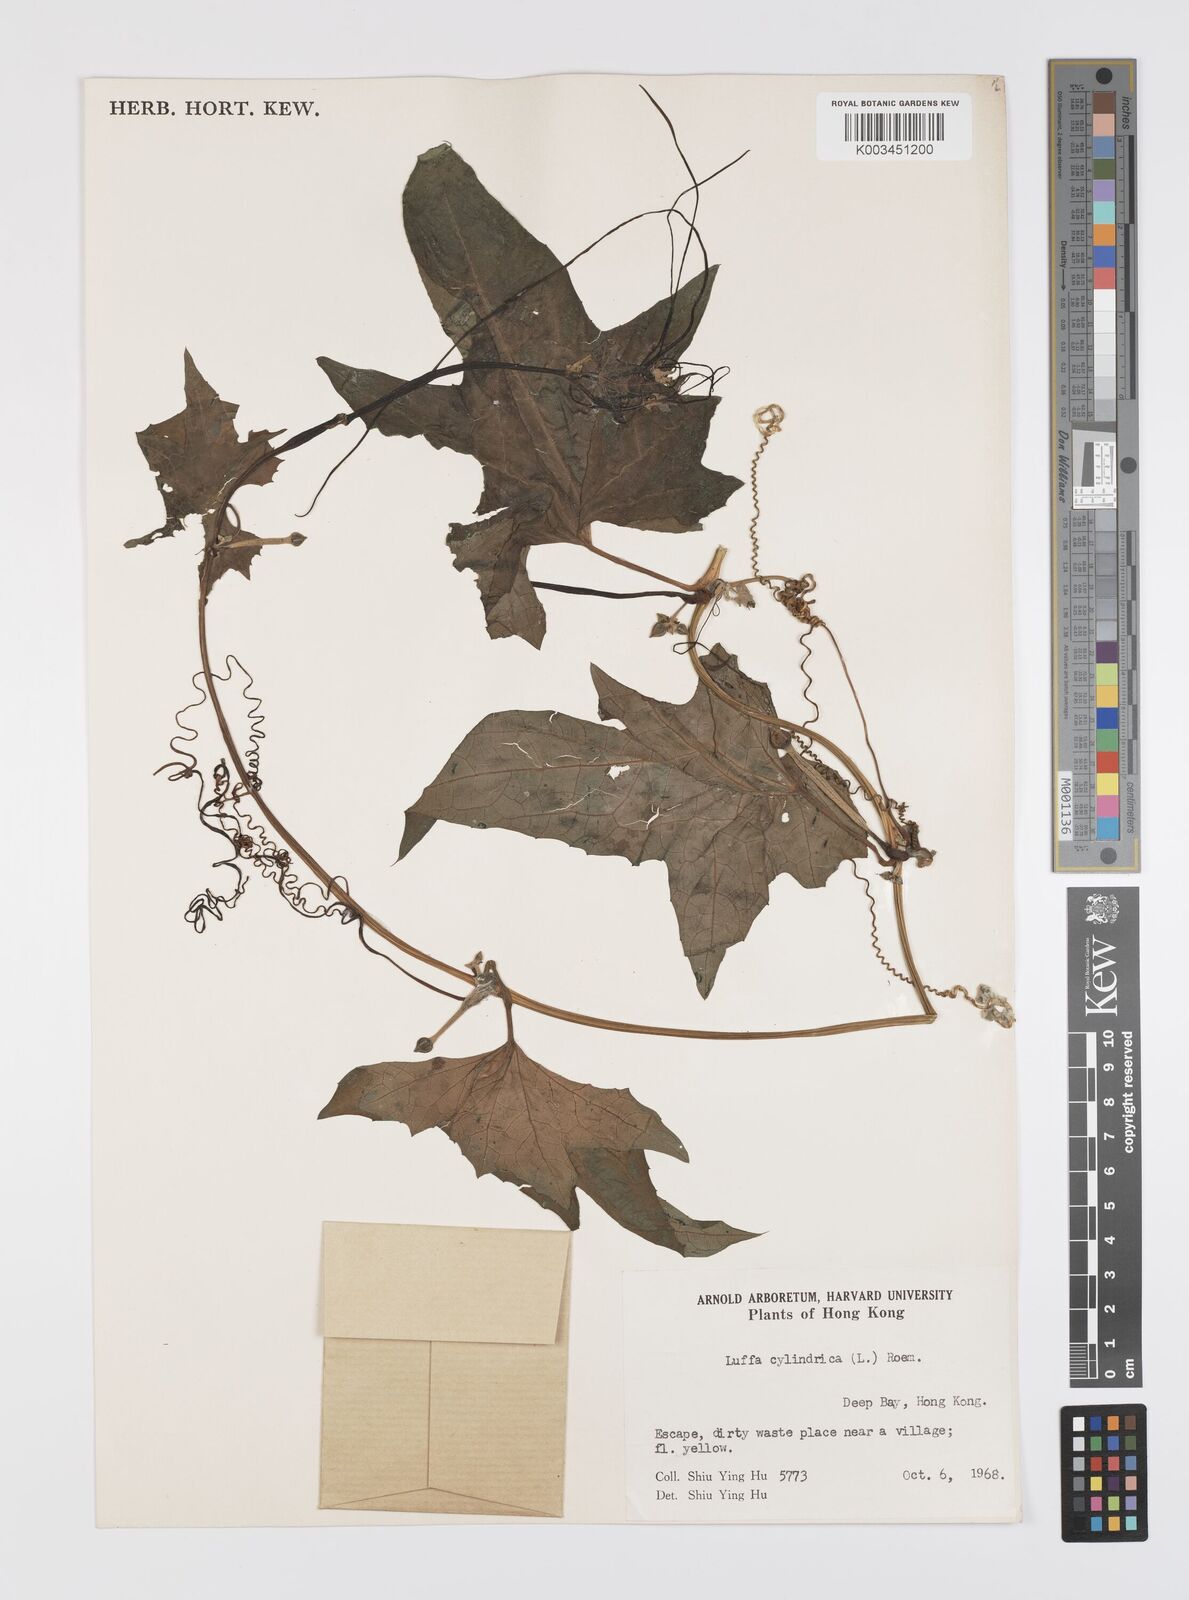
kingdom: Plantae
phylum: Tracheophyta
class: Magnoliopsida
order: Cucurbitales
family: Cucurbitaceae
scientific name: Cucurbitaceae
